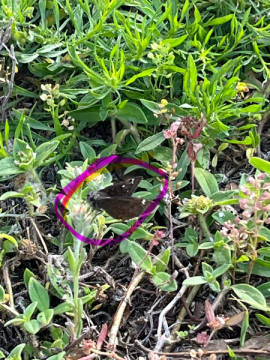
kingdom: Animalia
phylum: Arthropoda
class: Insecta
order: Lepidoptera
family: Hesperiidae
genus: Gesta
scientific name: Gesta
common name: Horace's Duskywing
